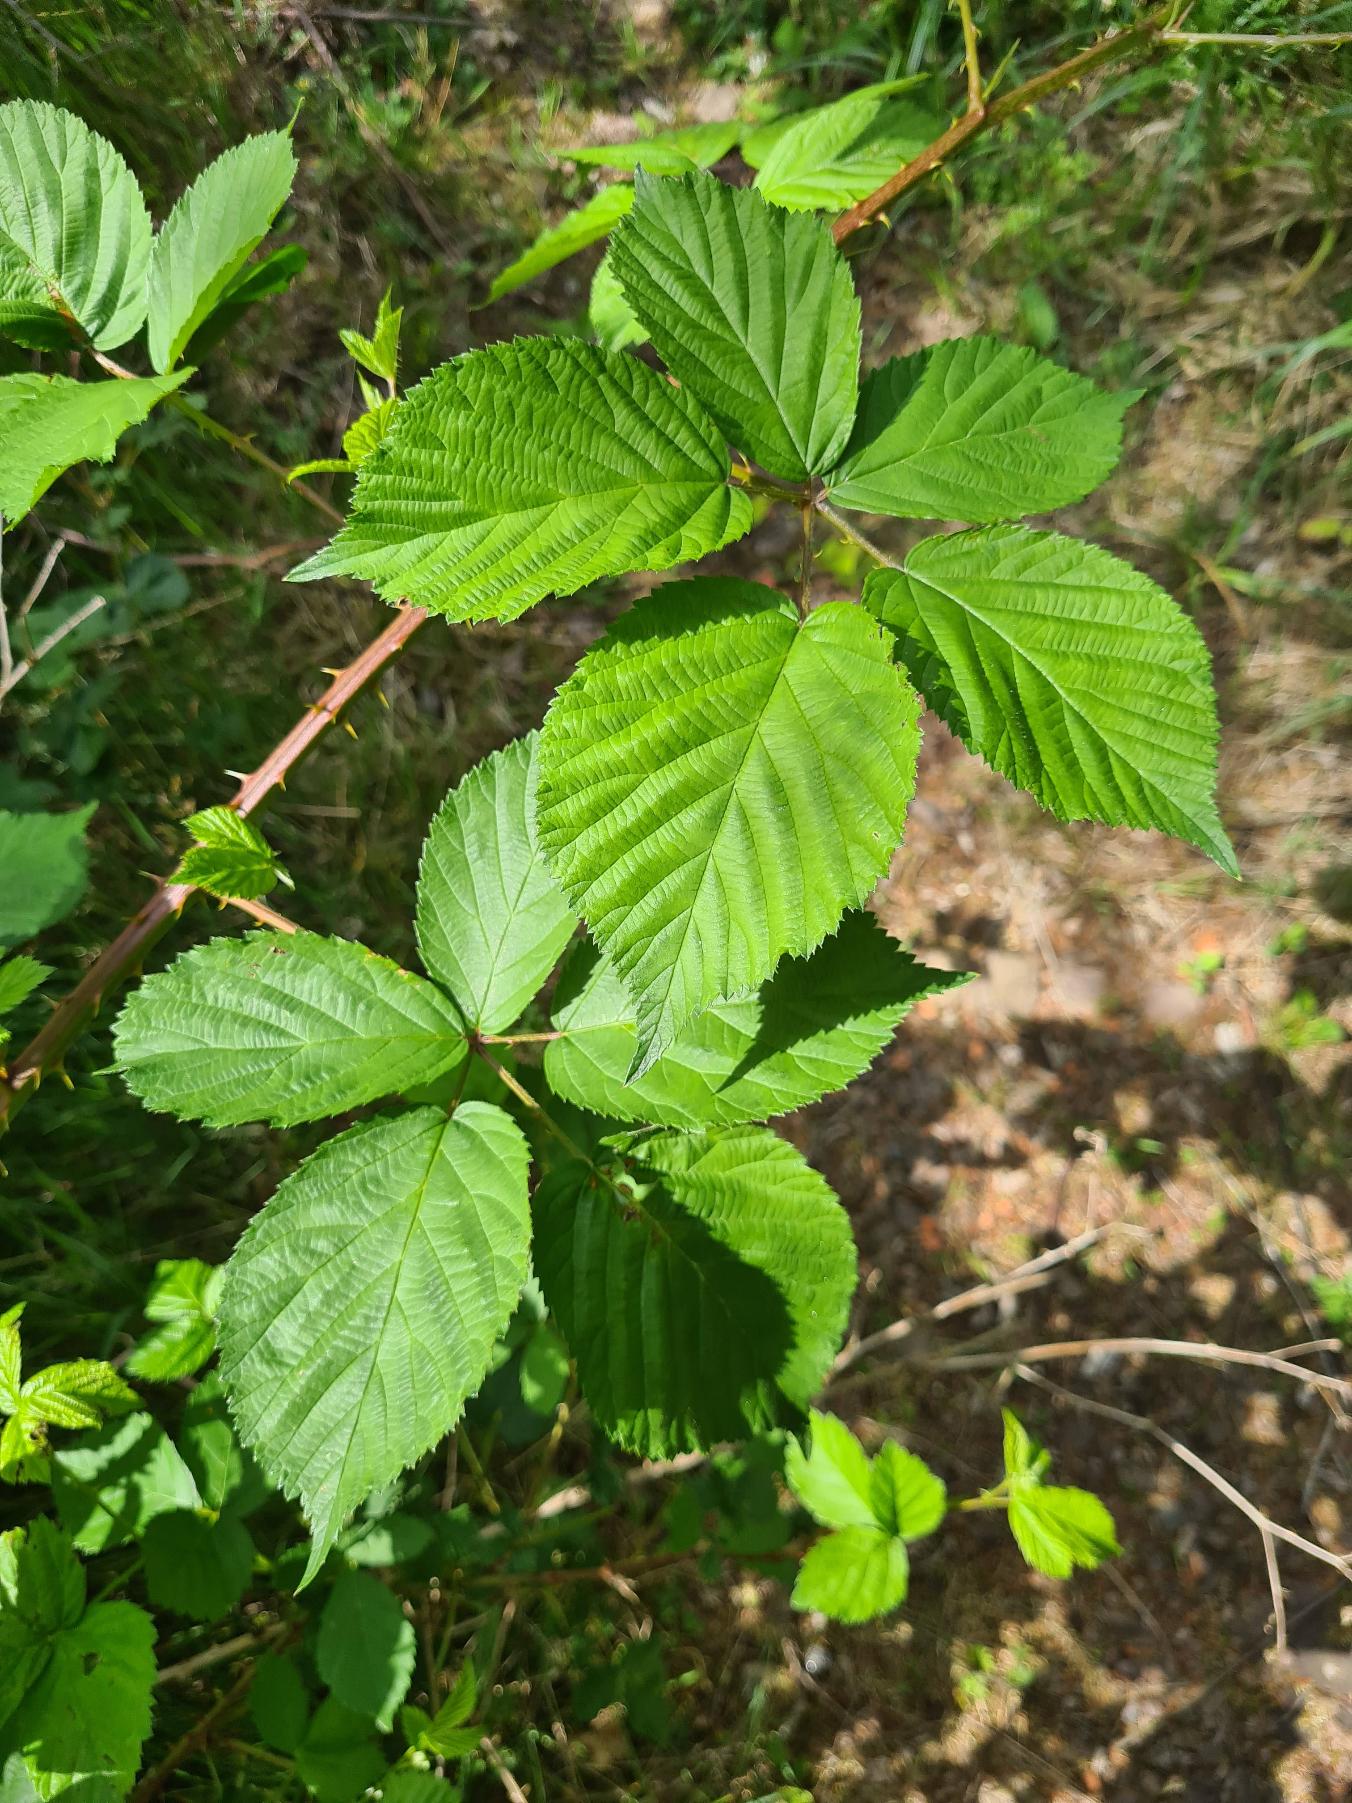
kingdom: Plantae
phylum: Tracheophyta
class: Magnoliopsida
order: Rosales
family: Rosaceae
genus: Rubus
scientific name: Rubus grabowskii
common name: Duskblomstret brombær
